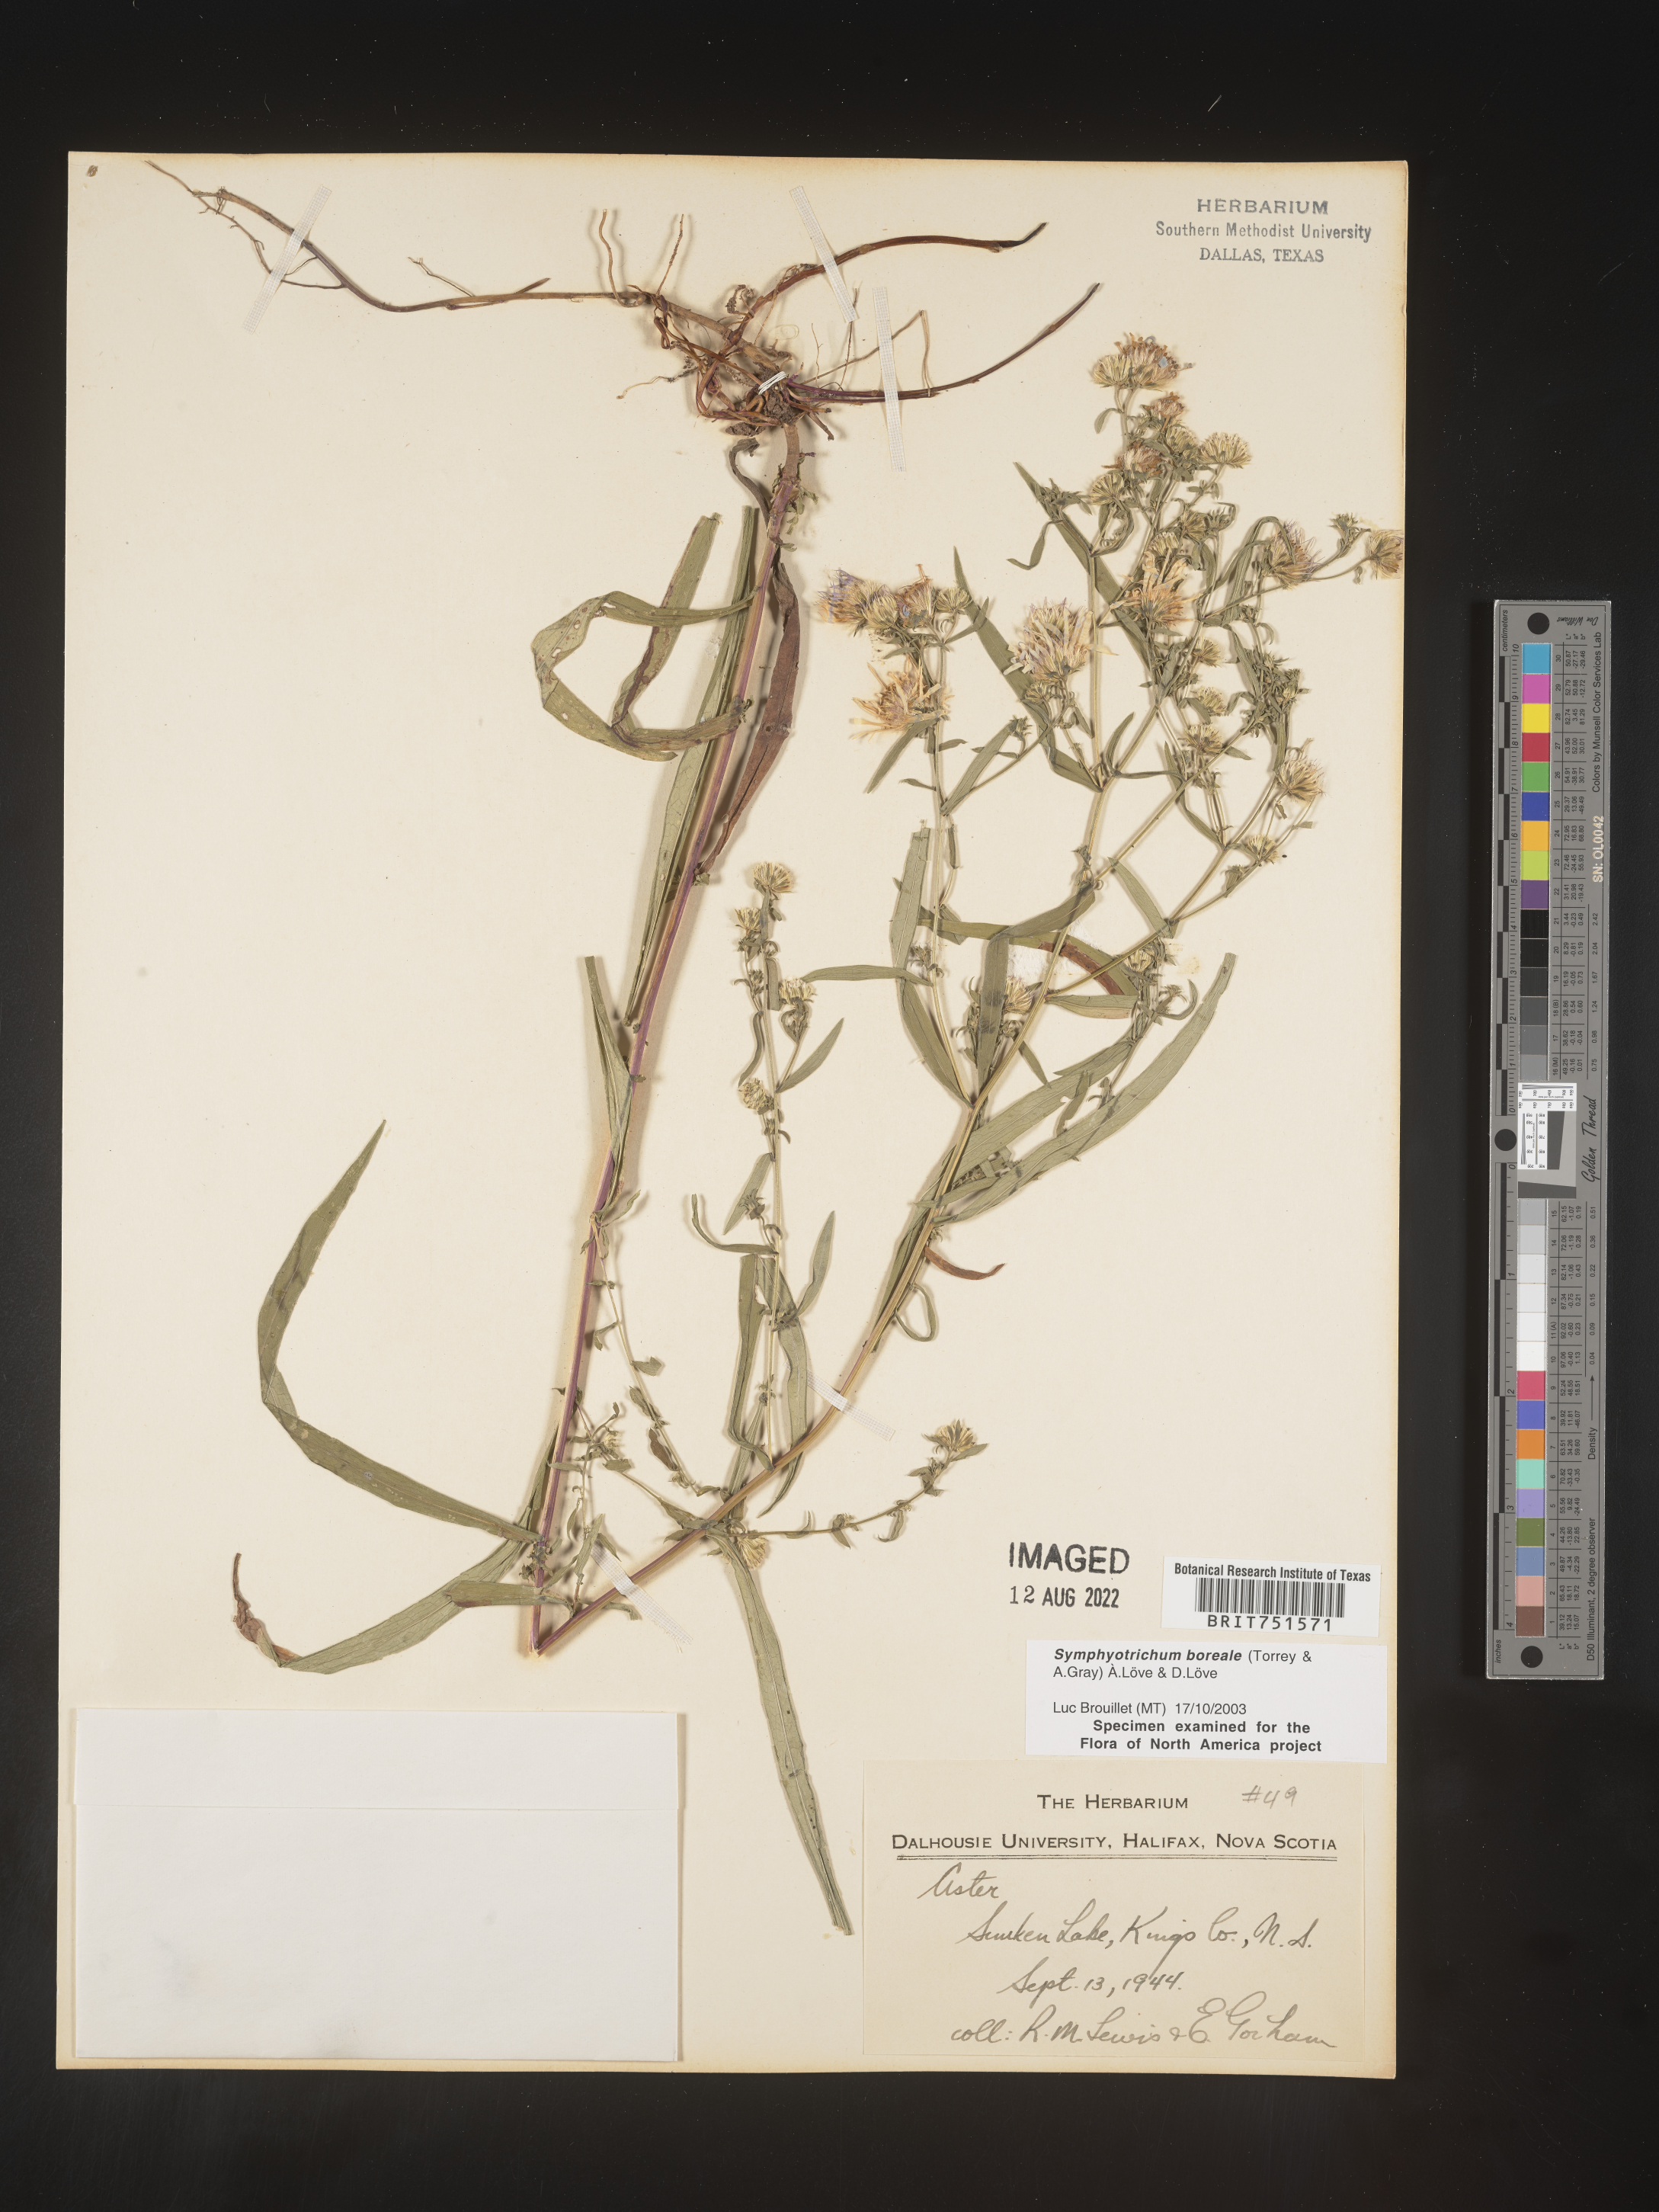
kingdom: Plantae
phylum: Tracheophyta
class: Magnoliopsida
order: Asterales
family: Asteraceae
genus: Symphyotrichum
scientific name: Symphyotrichum boreale
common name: Northern bog aster
